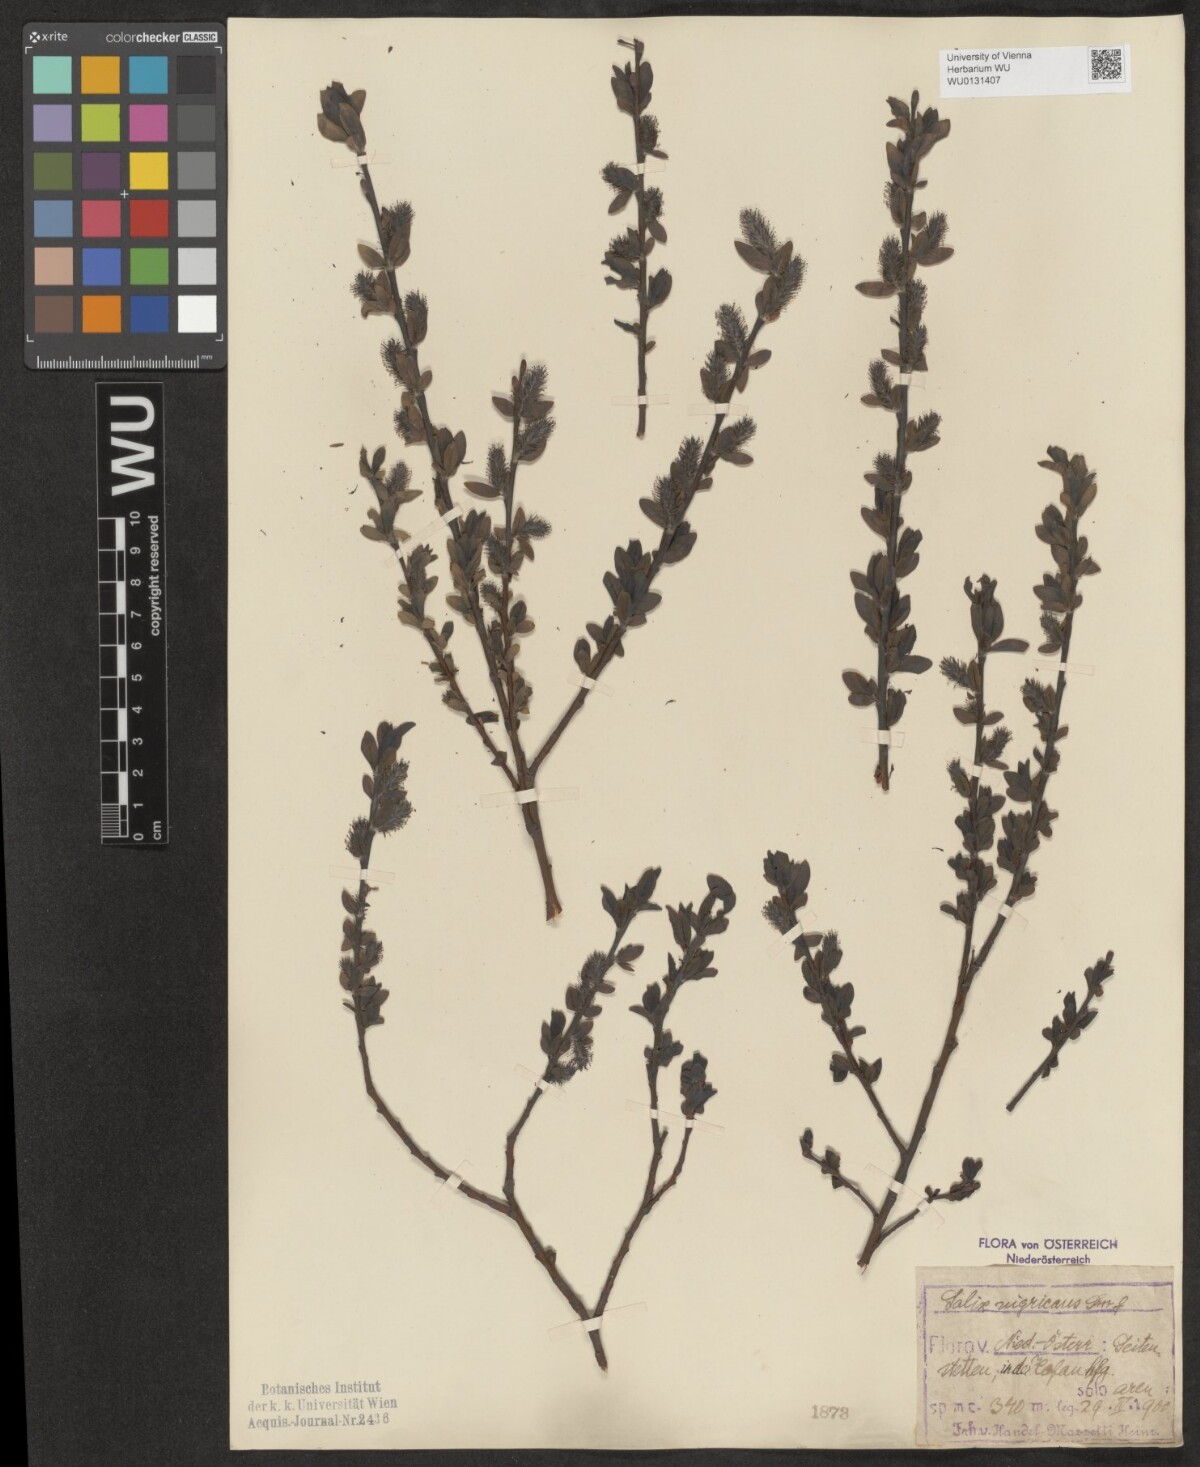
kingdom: Plantae
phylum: Tracheophyta
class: Magnoliopsida
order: Malpighiales
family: Salicaceae
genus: Salix
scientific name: Salix myrsinifolia
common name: Dark-leaved willow
